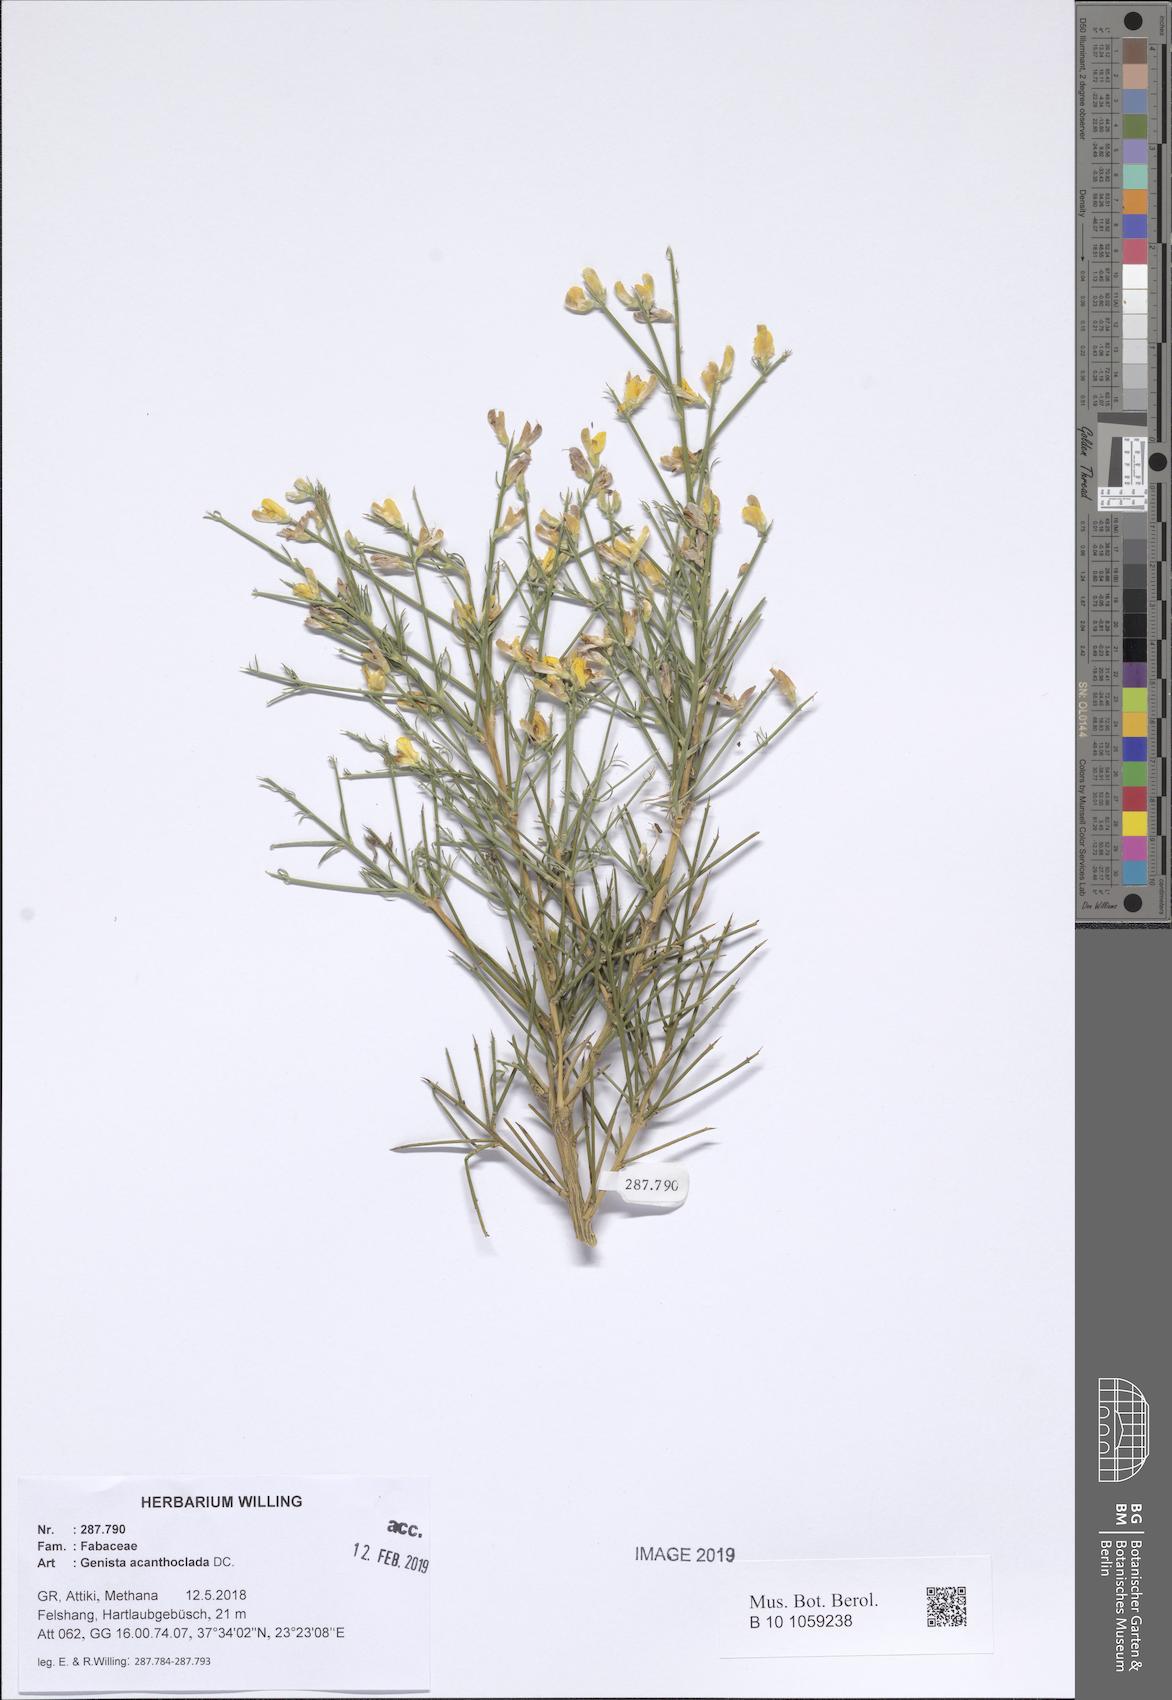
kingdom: Plantae
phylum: Tracheophyta
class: Magnoliopsida
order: Fabales
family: Fabaceae
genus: Genista
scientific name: Genista acanthoclada
